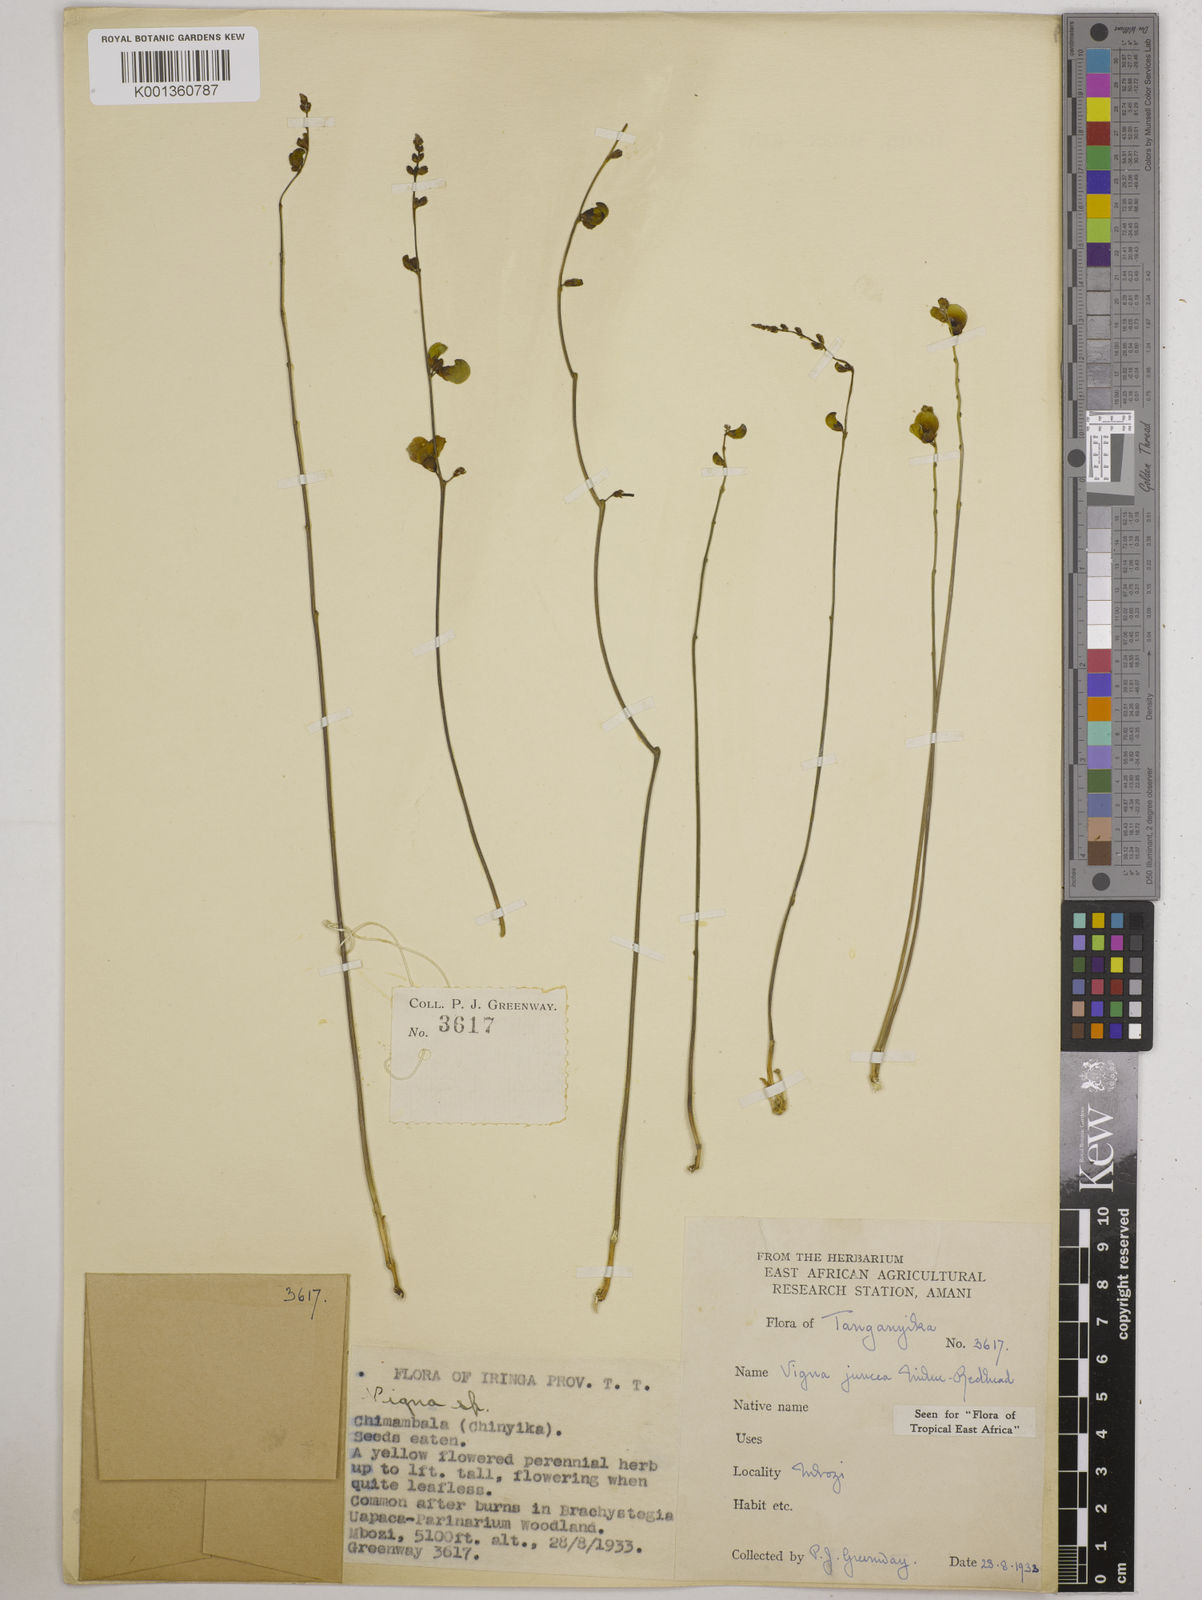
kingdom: Plantae
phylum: Tracheophyta
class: Magnoliopsida
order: Fabales
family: Fabaceae
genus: Vigna
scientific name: Vigna juncea
